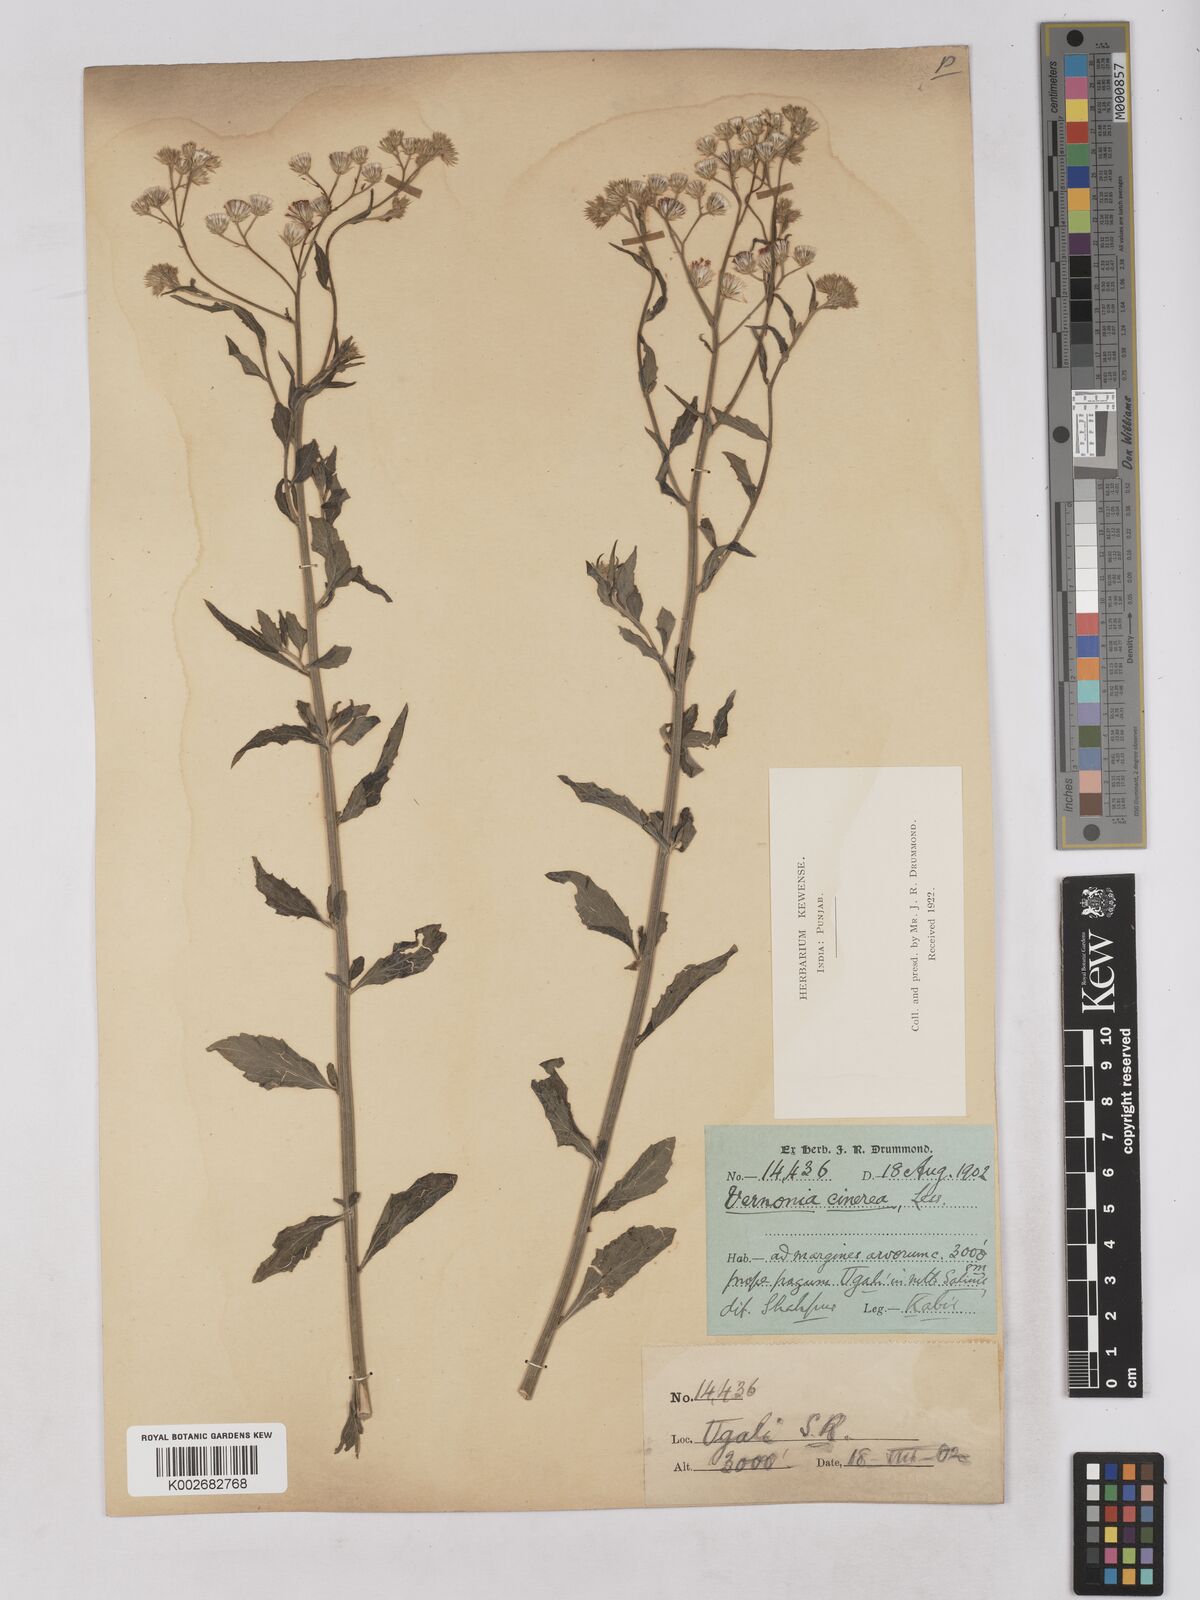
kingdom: Plantae
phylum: Tracheophyta
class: Magnoliopsida
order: Asterales
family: Asteraceae
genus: Cyanthillium
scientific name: Cyanthillium cinereum
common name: Little ironweed
